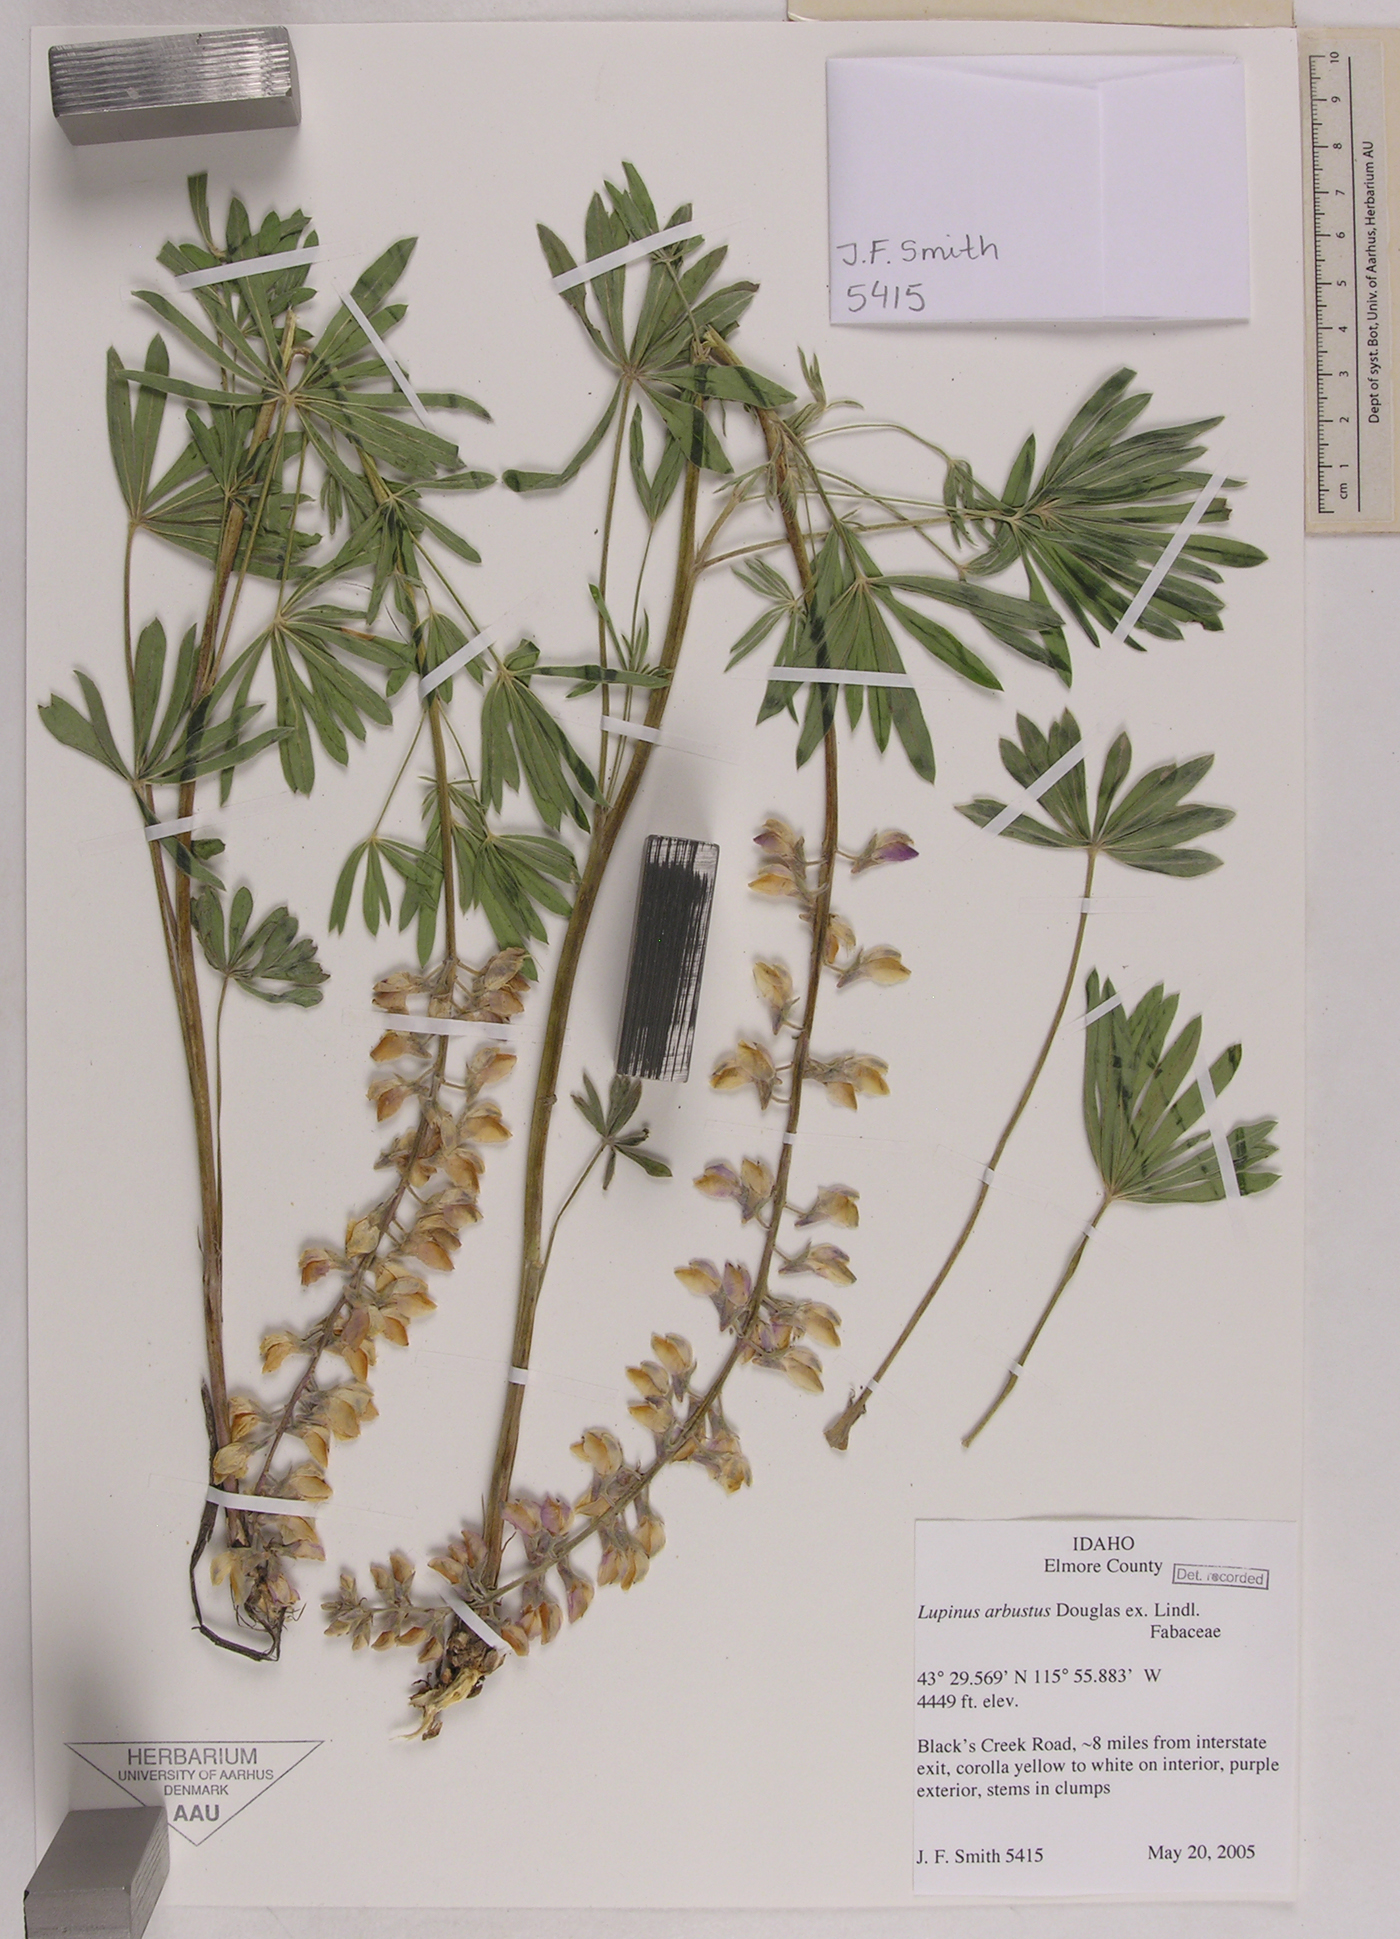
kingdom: Plantae
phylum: Tracheophyta
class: Magnoliopsida
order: Fabales
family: Fabaceae
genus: Lupinus
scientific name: Lupinus arbustus
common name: Montana lupine
